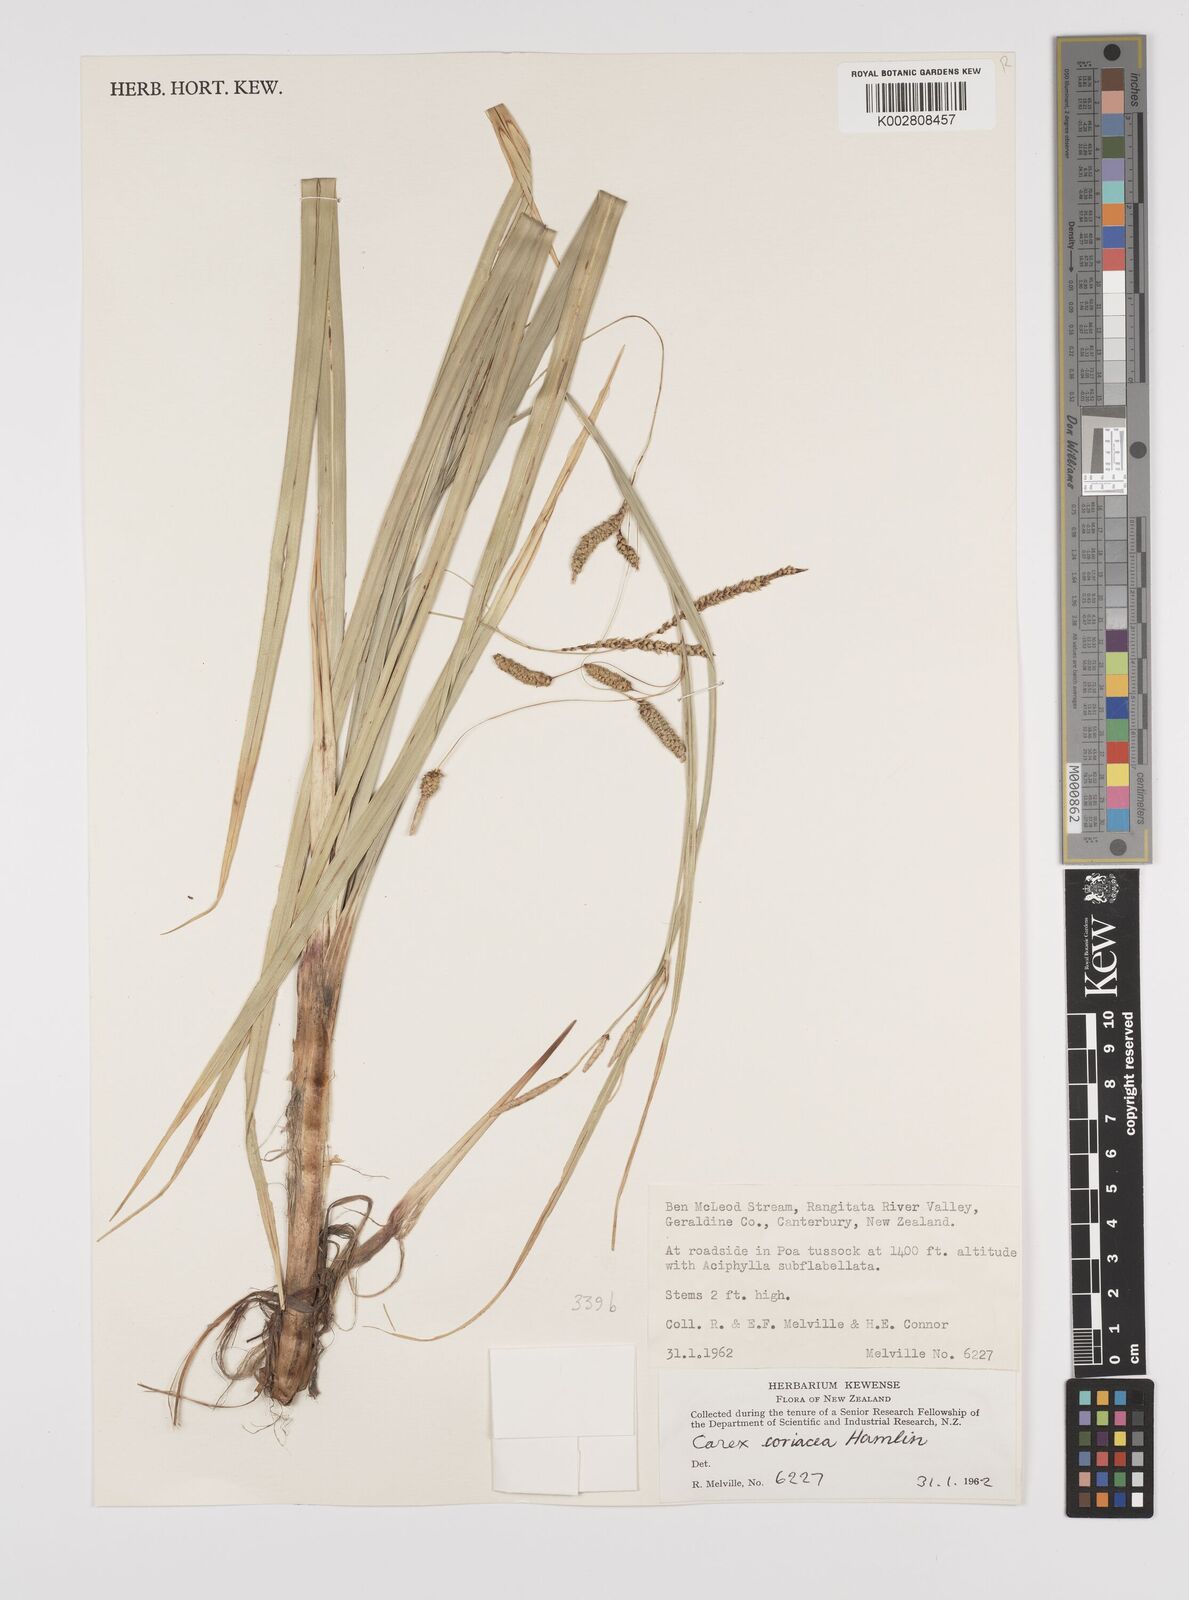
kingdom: Plantae
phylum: Tracheophyta
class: Liliopsida
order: Poales
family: Cyperaceae
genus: Carex
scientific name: Carex coriacea
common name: Rautahi
